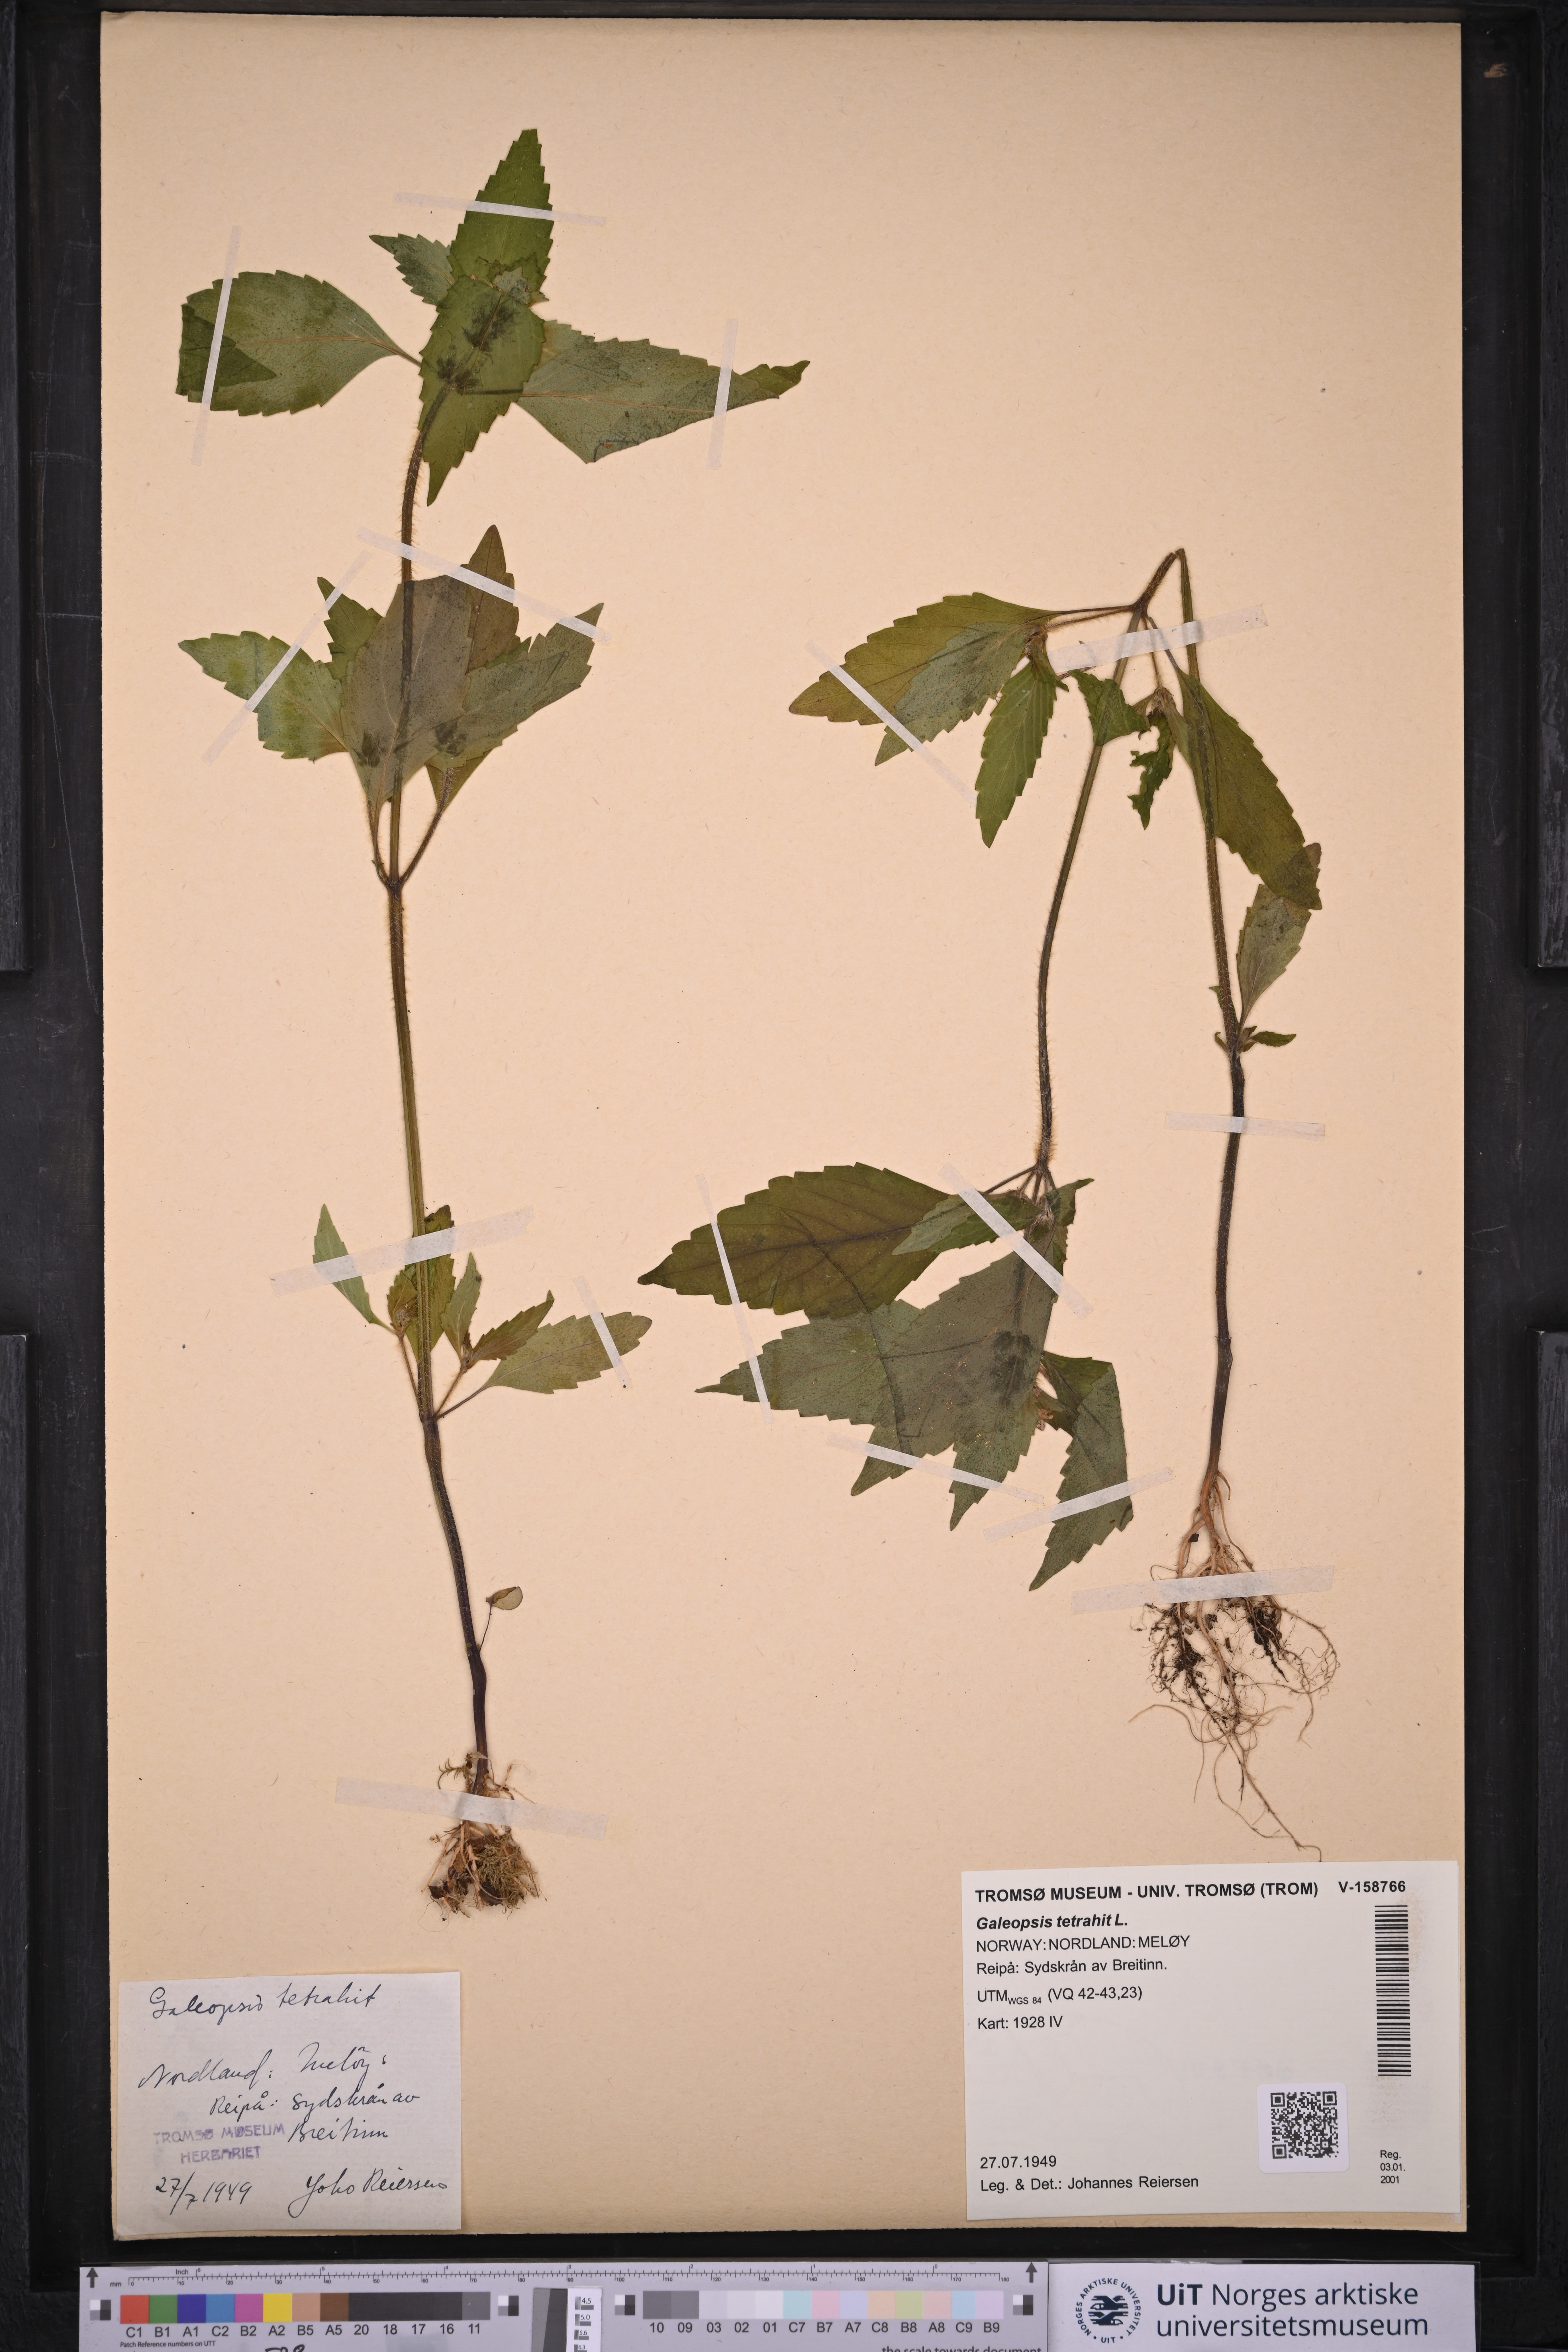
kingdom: Plantae
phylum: Tracheophyta
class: Magnoliopsida
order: Lamiales
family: Lamiaceae
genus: Galeopsis
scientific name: Galeopsis tetrahit
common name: Common hemp-nettle
